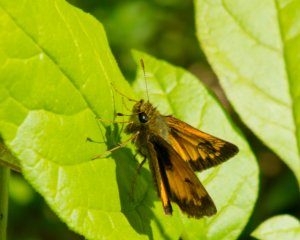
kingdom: Animalia
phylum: Arthropoda
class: Insecta
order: Lepidoptera
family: Hesperiidae
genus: Lon
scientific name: Lon hobomok
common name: Hobomok Skipper
